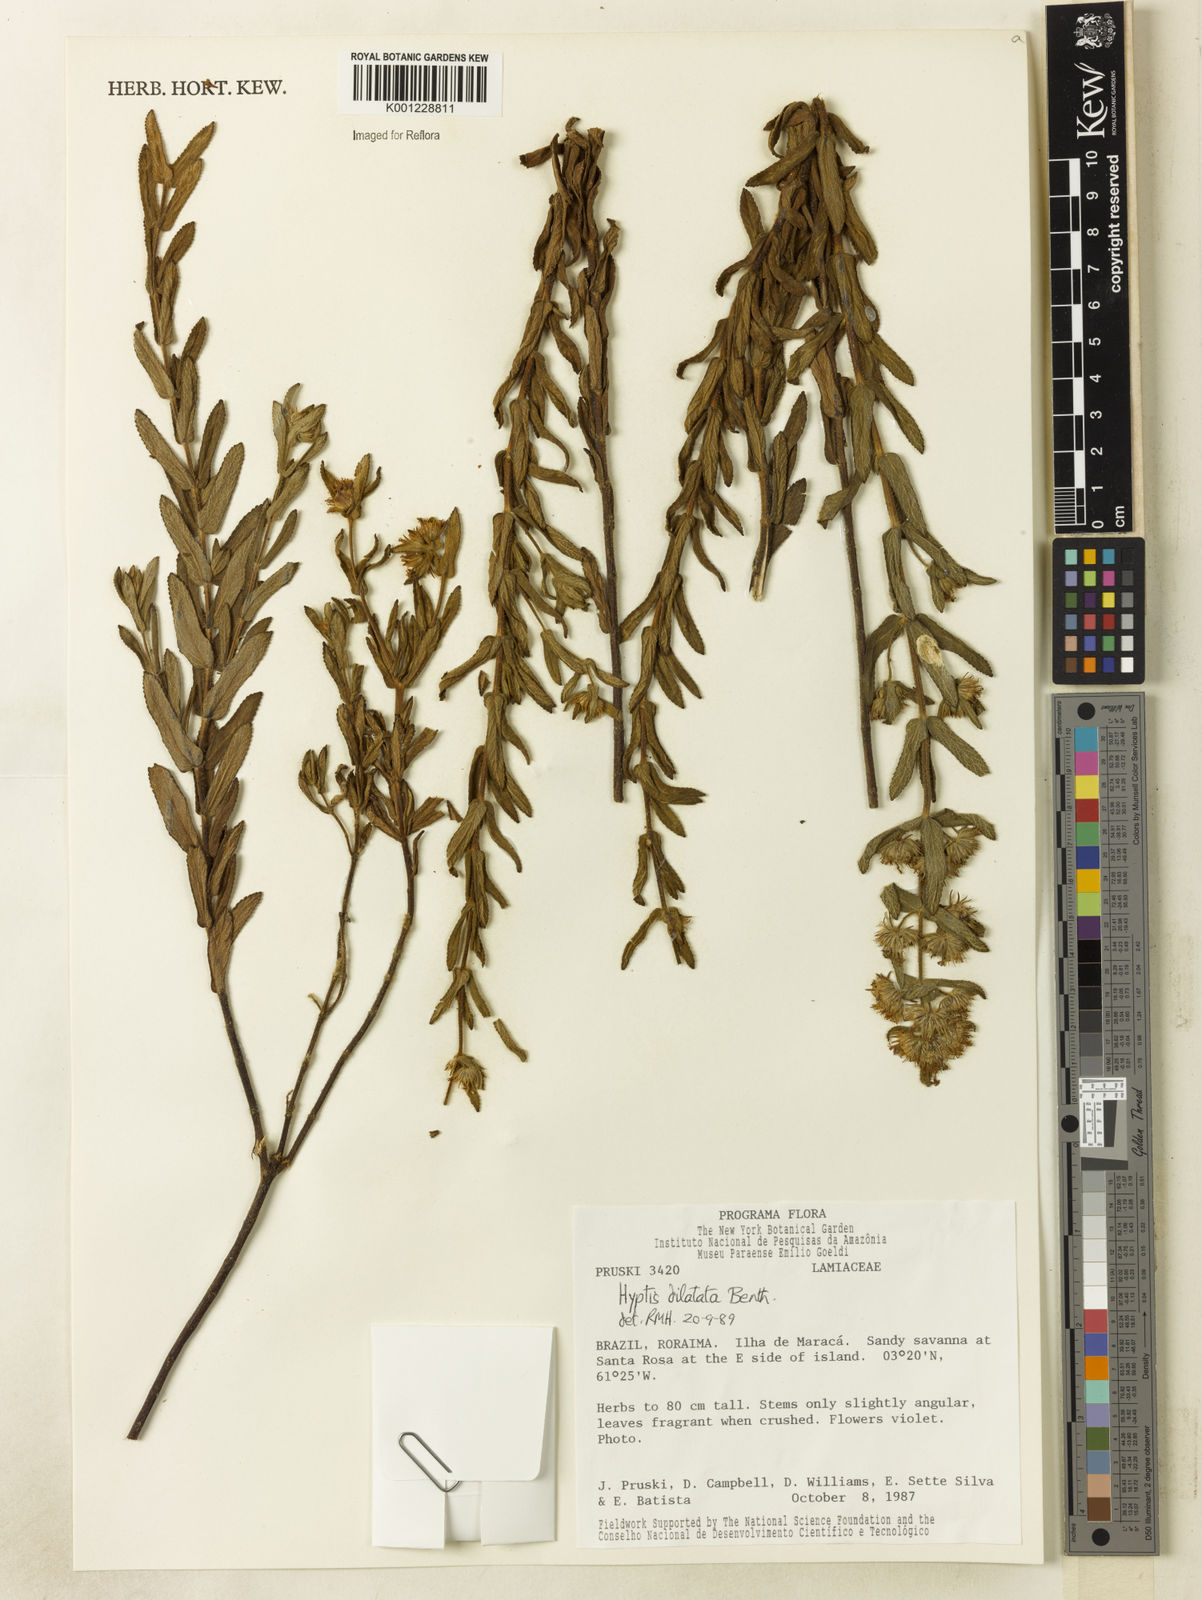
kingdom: Plantae
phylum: Tracheophyta
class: Magnoliopsida
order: Lamiales
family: Lamiaceae
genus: Hyptis
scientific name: Hyptis dilatata
